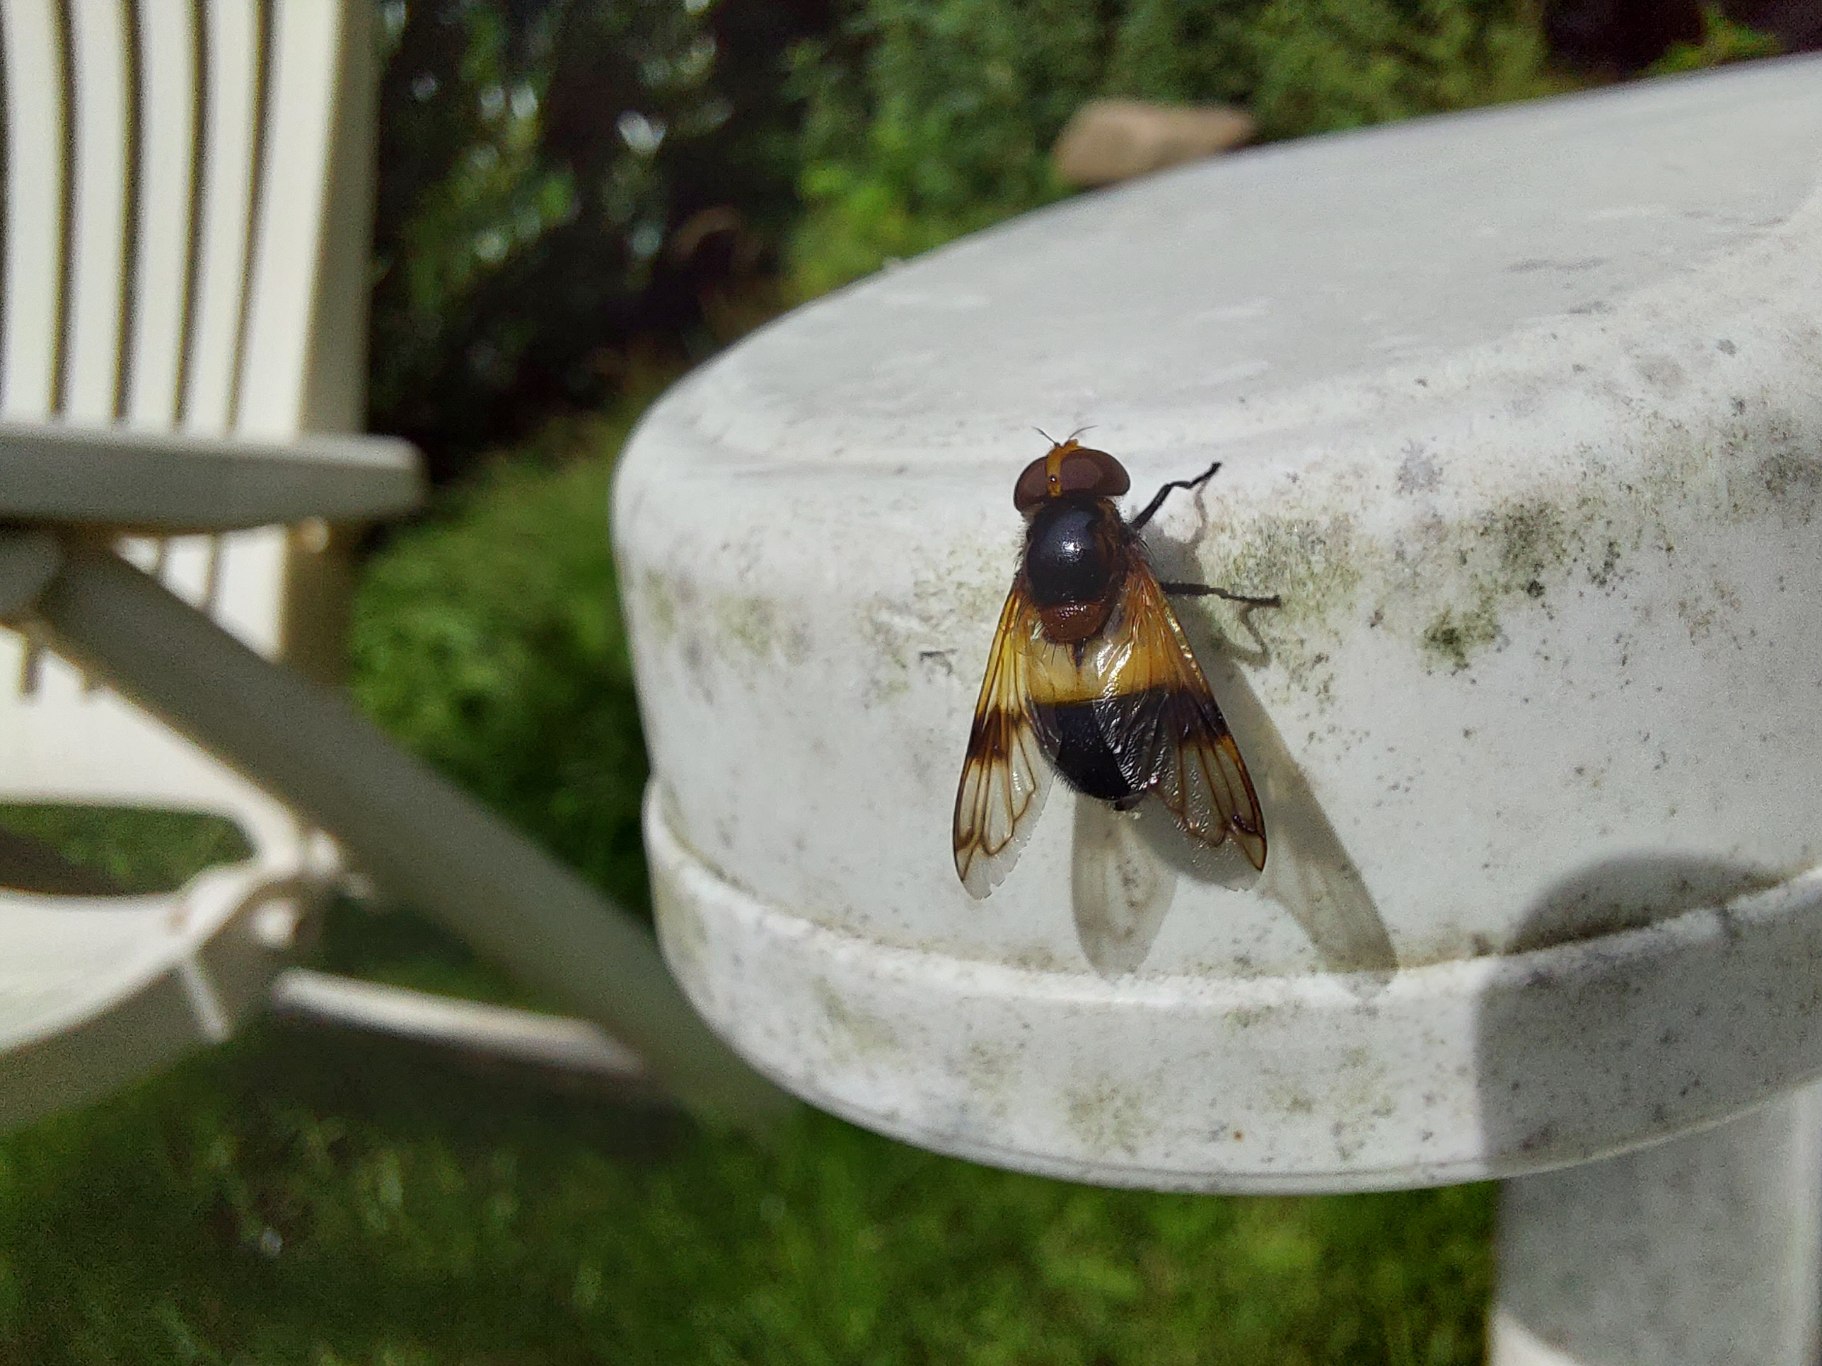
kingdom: Animalia
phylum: Arthropoda
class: Insecta
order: Diptera
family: Syrphidae
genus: Volucella
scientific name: Volucella pellucens
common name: Hvidbåndet humlesvirreflue
